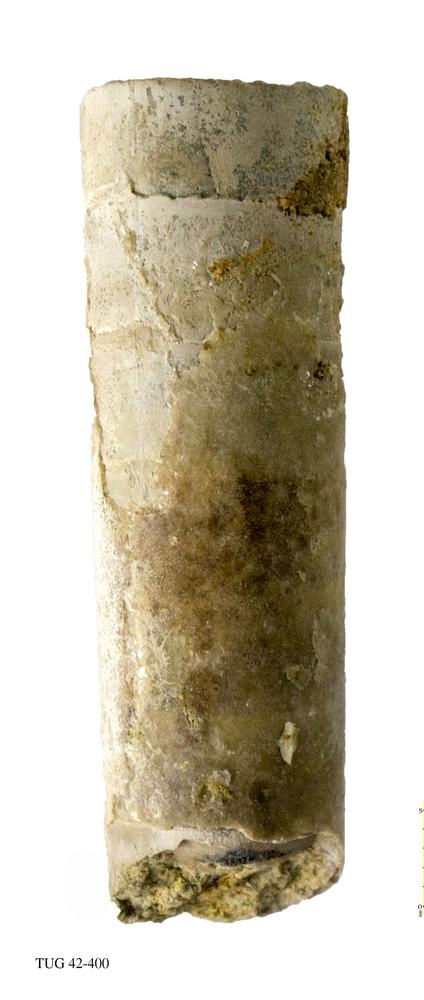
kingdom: Animalia
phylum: Mollusca
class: Cephalopoda
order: Orthocerida
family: Orthoceratidae
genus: Orthoceras
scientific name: Orthoceras regulare
